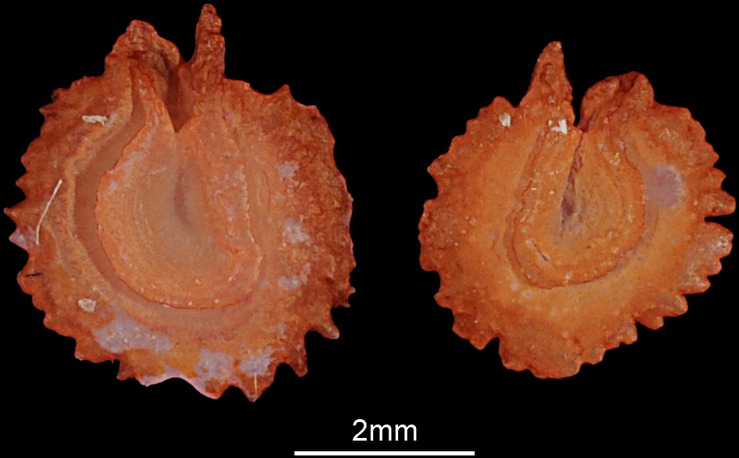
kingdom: Animalia
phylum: Chordata
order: Cypriniformes
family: Cyprinidae
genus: Ballerus
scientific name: Ballerus ballerus
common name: Blue bream
